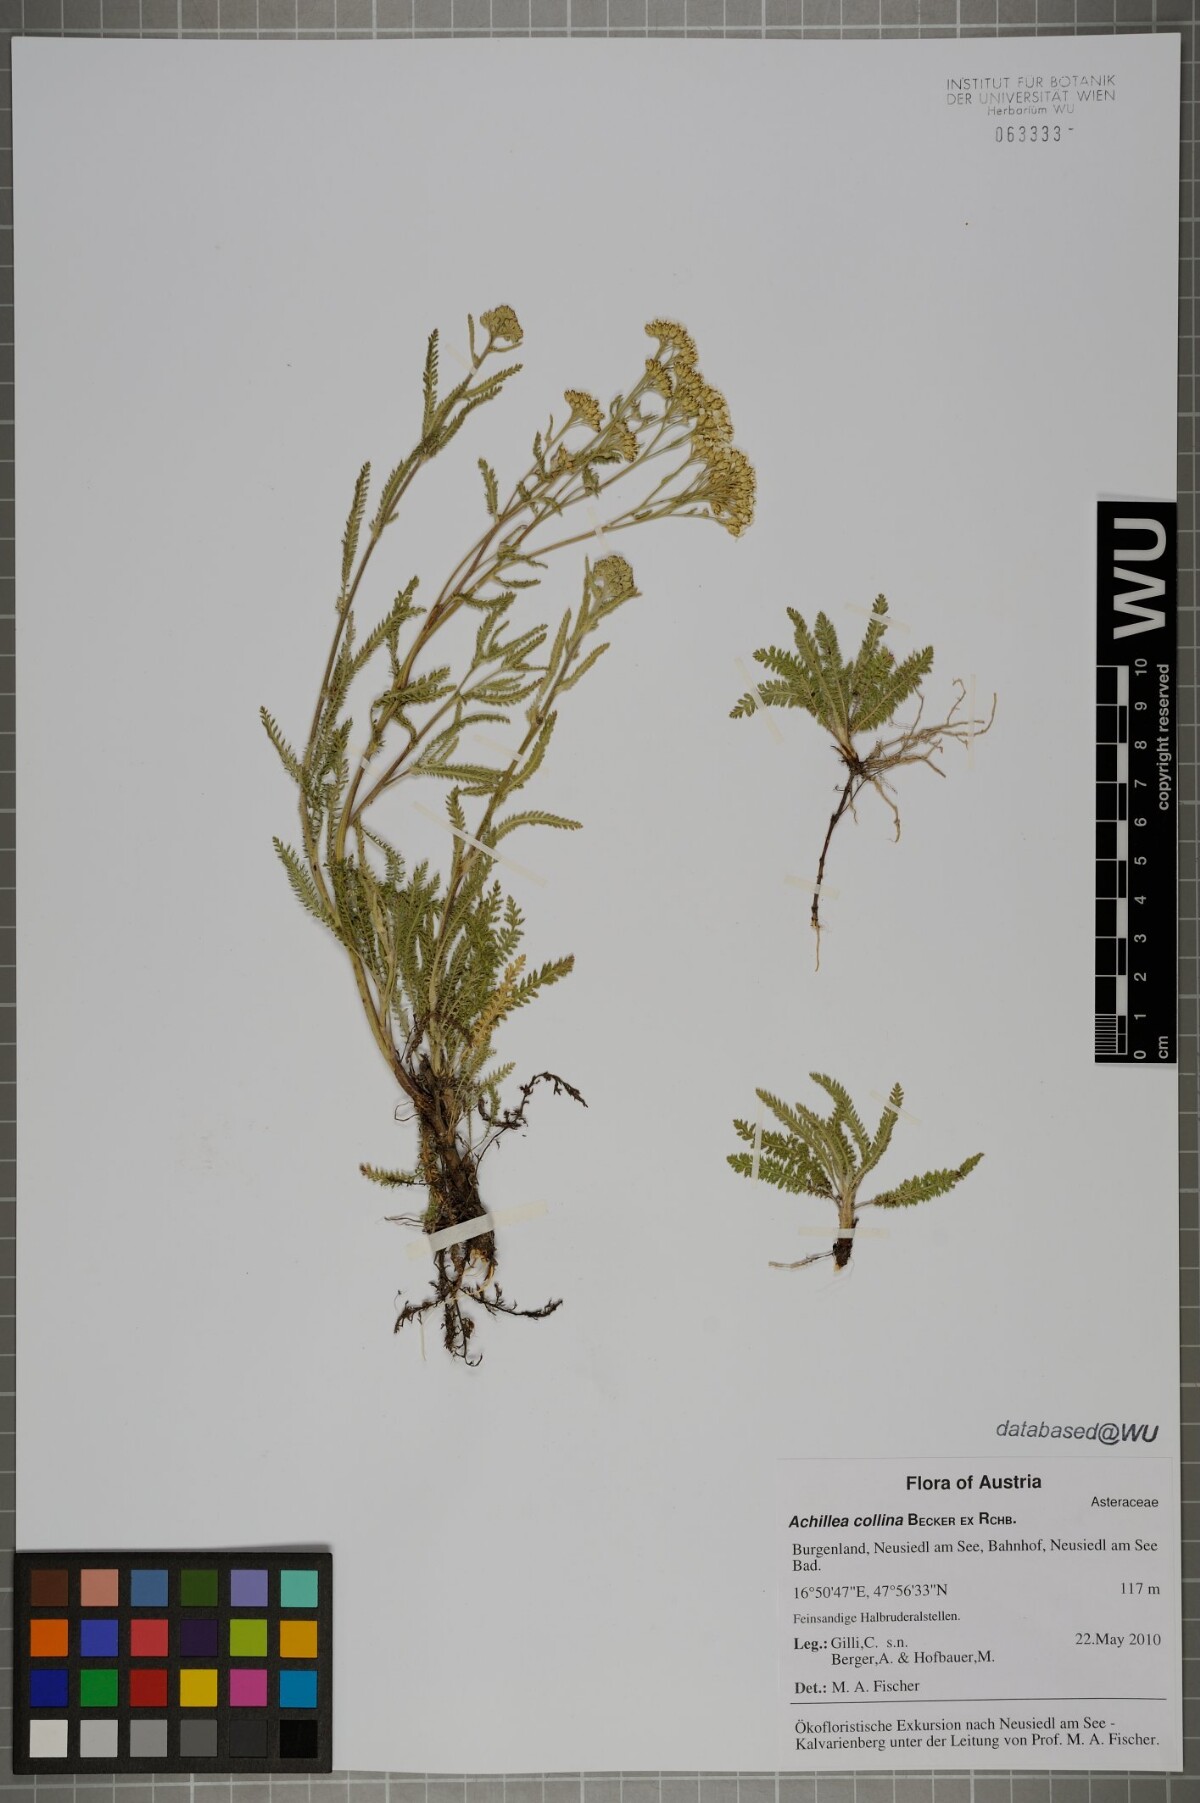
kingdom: Plantae
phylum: Tracheophyta
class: Magnoliopsida
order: Asterales
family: Asteraceae
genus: Achillea
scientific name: Achillea collina
